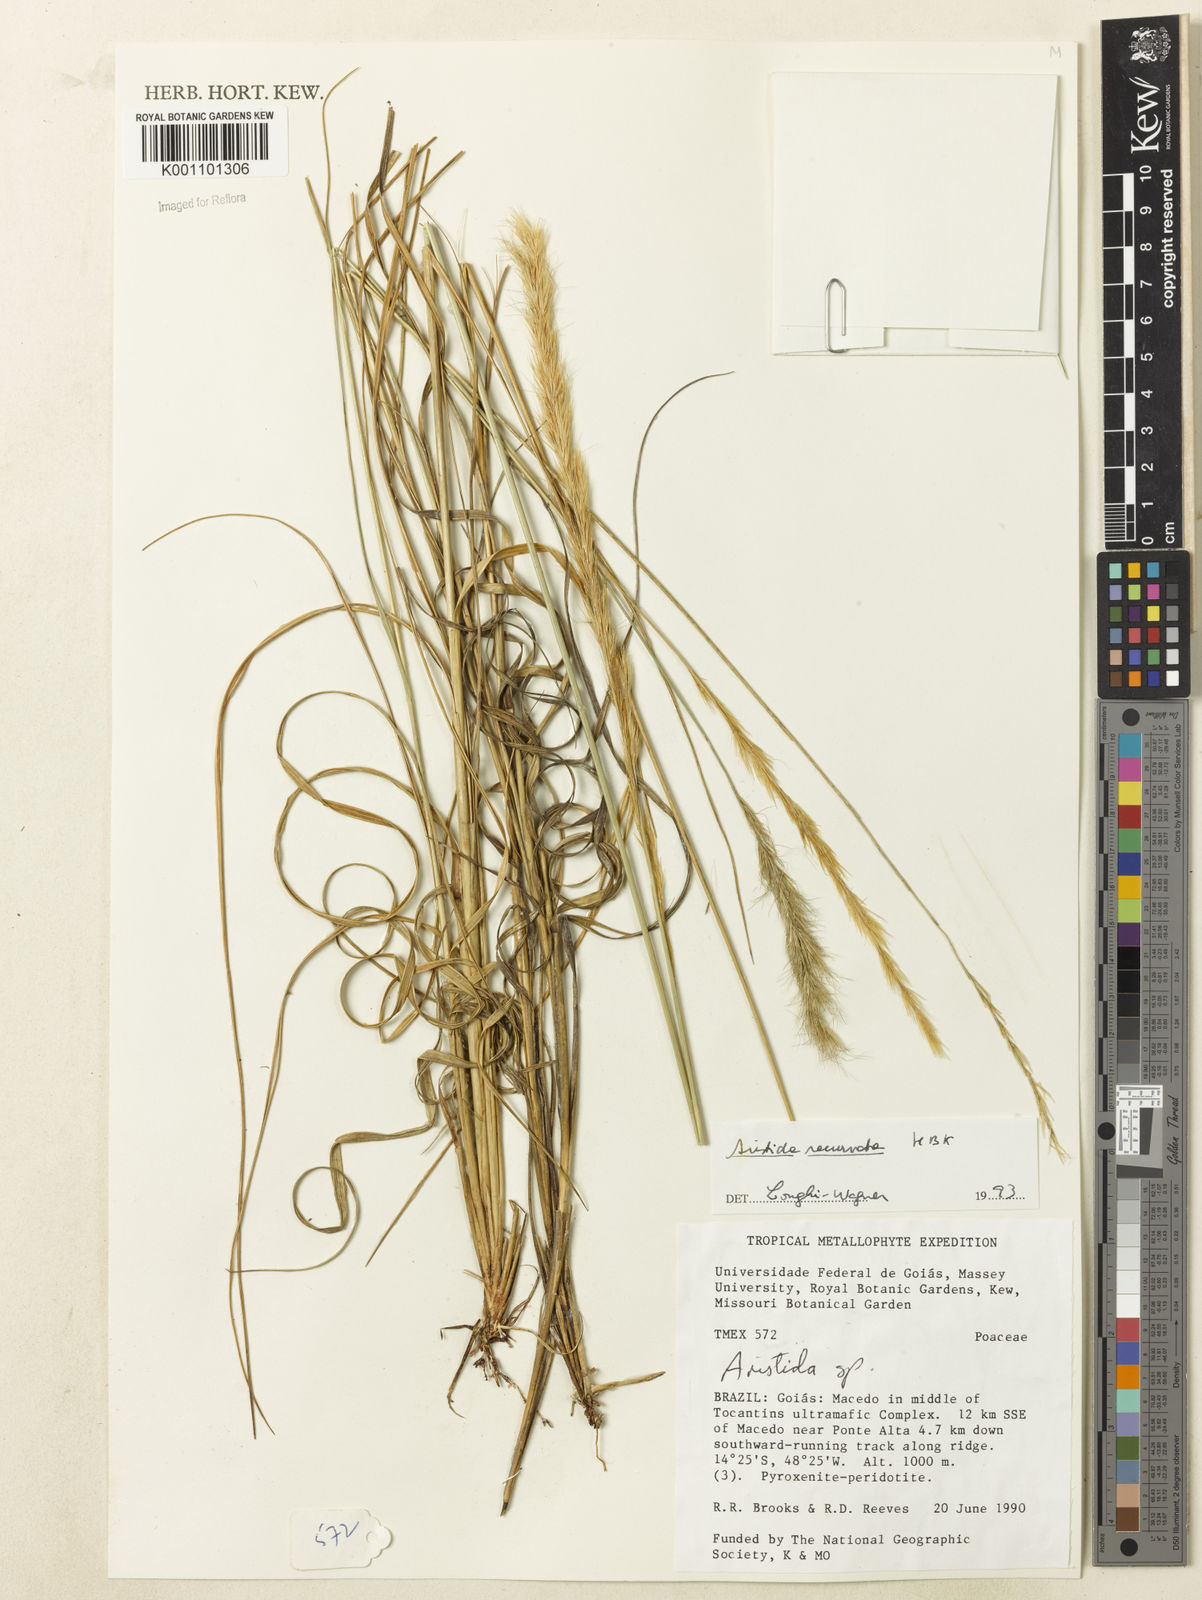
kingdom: Plantae
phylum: Tracheophyta
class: Liliopsida
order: Poales
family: Poaceae
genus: Aristida
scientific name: Aristida recurvata
